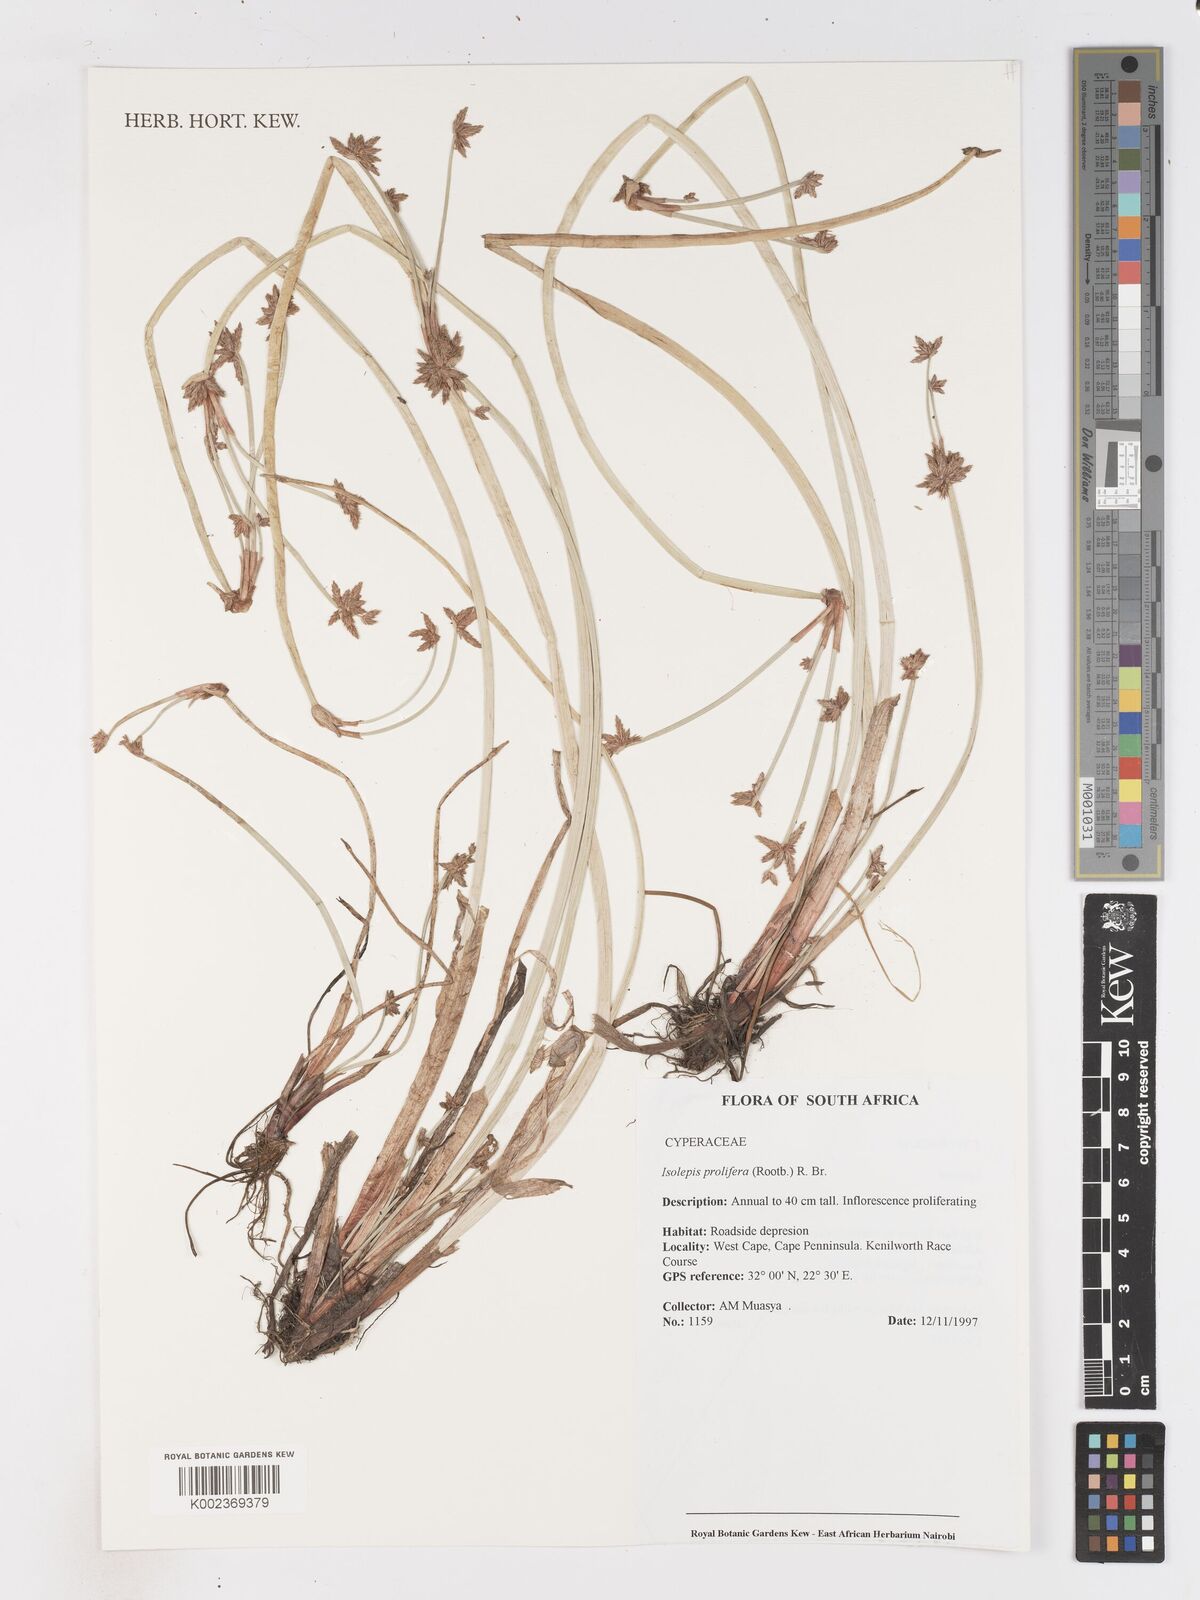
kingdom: Plantae
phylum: Tracheophyta
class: Liliopsida
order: Poales
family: Cyperaceae
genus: Isolepis
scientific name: Isolepis prolifera
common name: Proliferating bulrush
